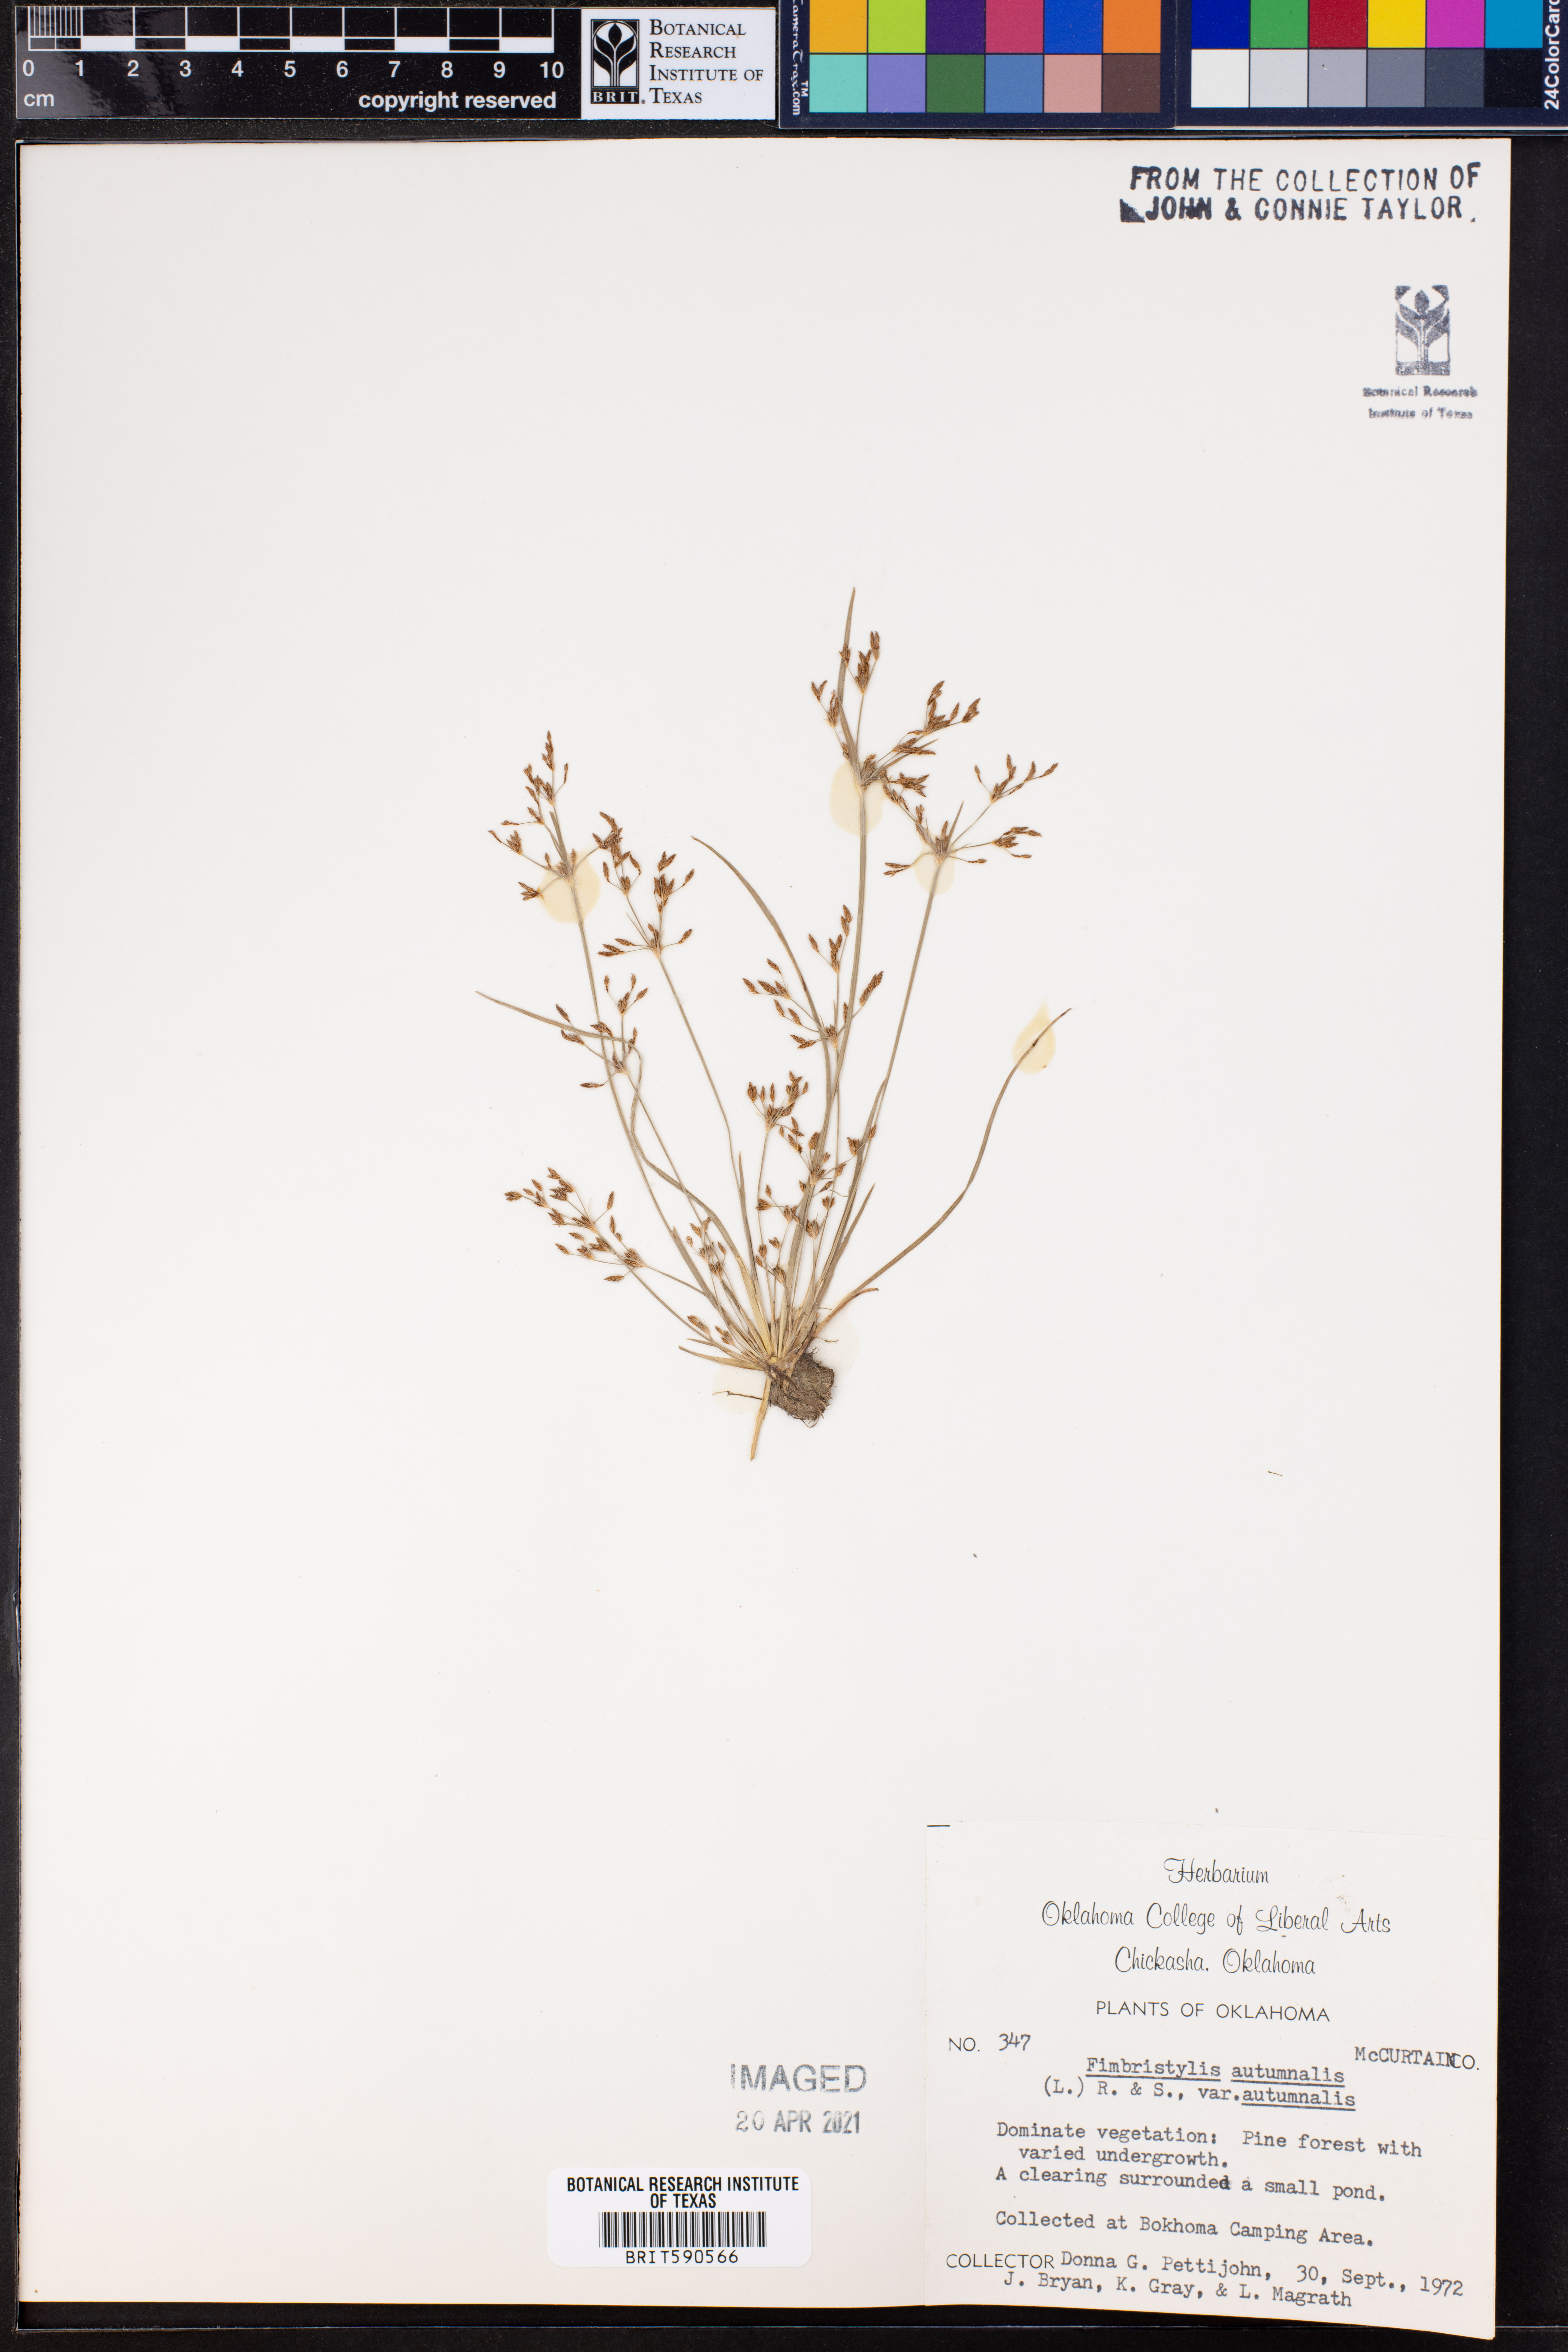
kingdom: Plantae
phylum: Tracheophyta
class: Liliopsida
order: Poales
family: Cyperaceae
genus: Fimbristylis
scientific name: Fimbristylis autumnalis
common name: Slender fimbristylis
